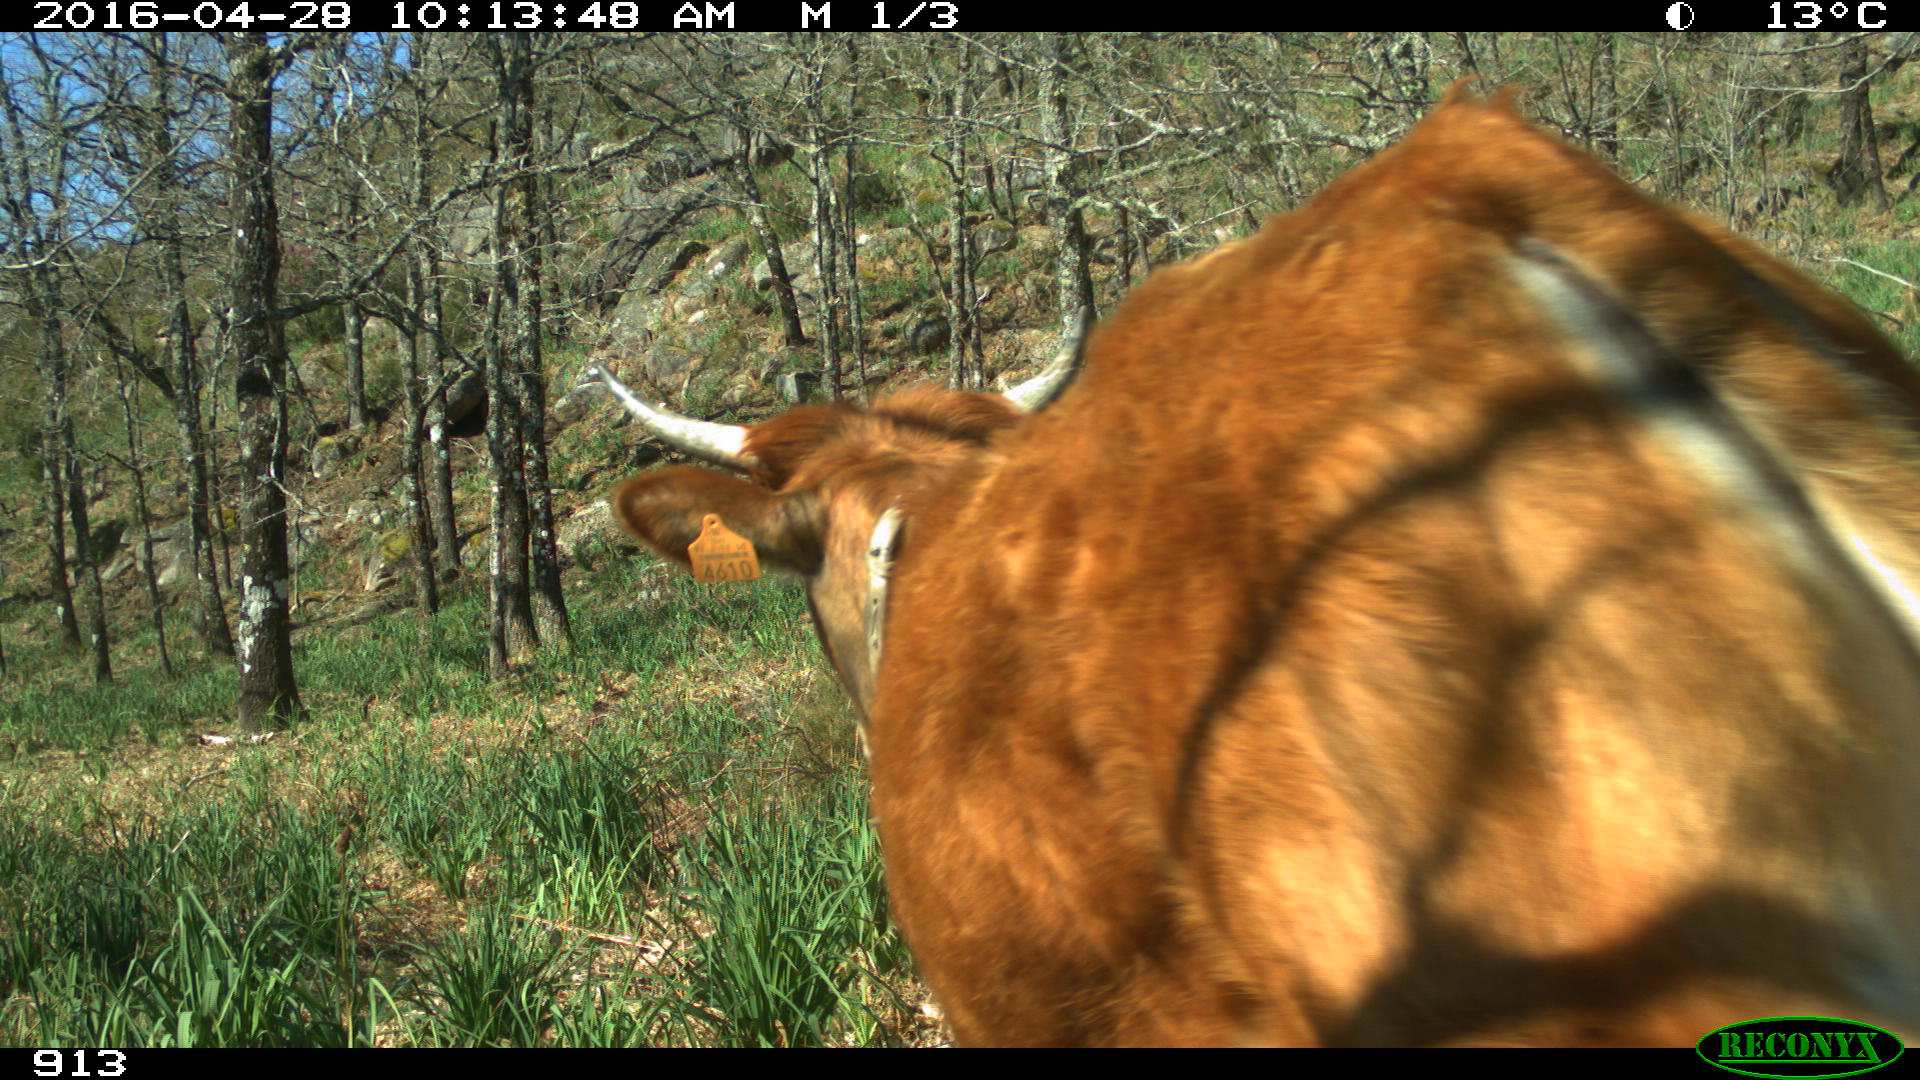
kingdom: Animalia
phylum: Chordata
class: Mammalia
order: Artiodactyla
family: Bovidae
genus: Bos
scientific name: Bos taurus
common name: Domesticated cattle
